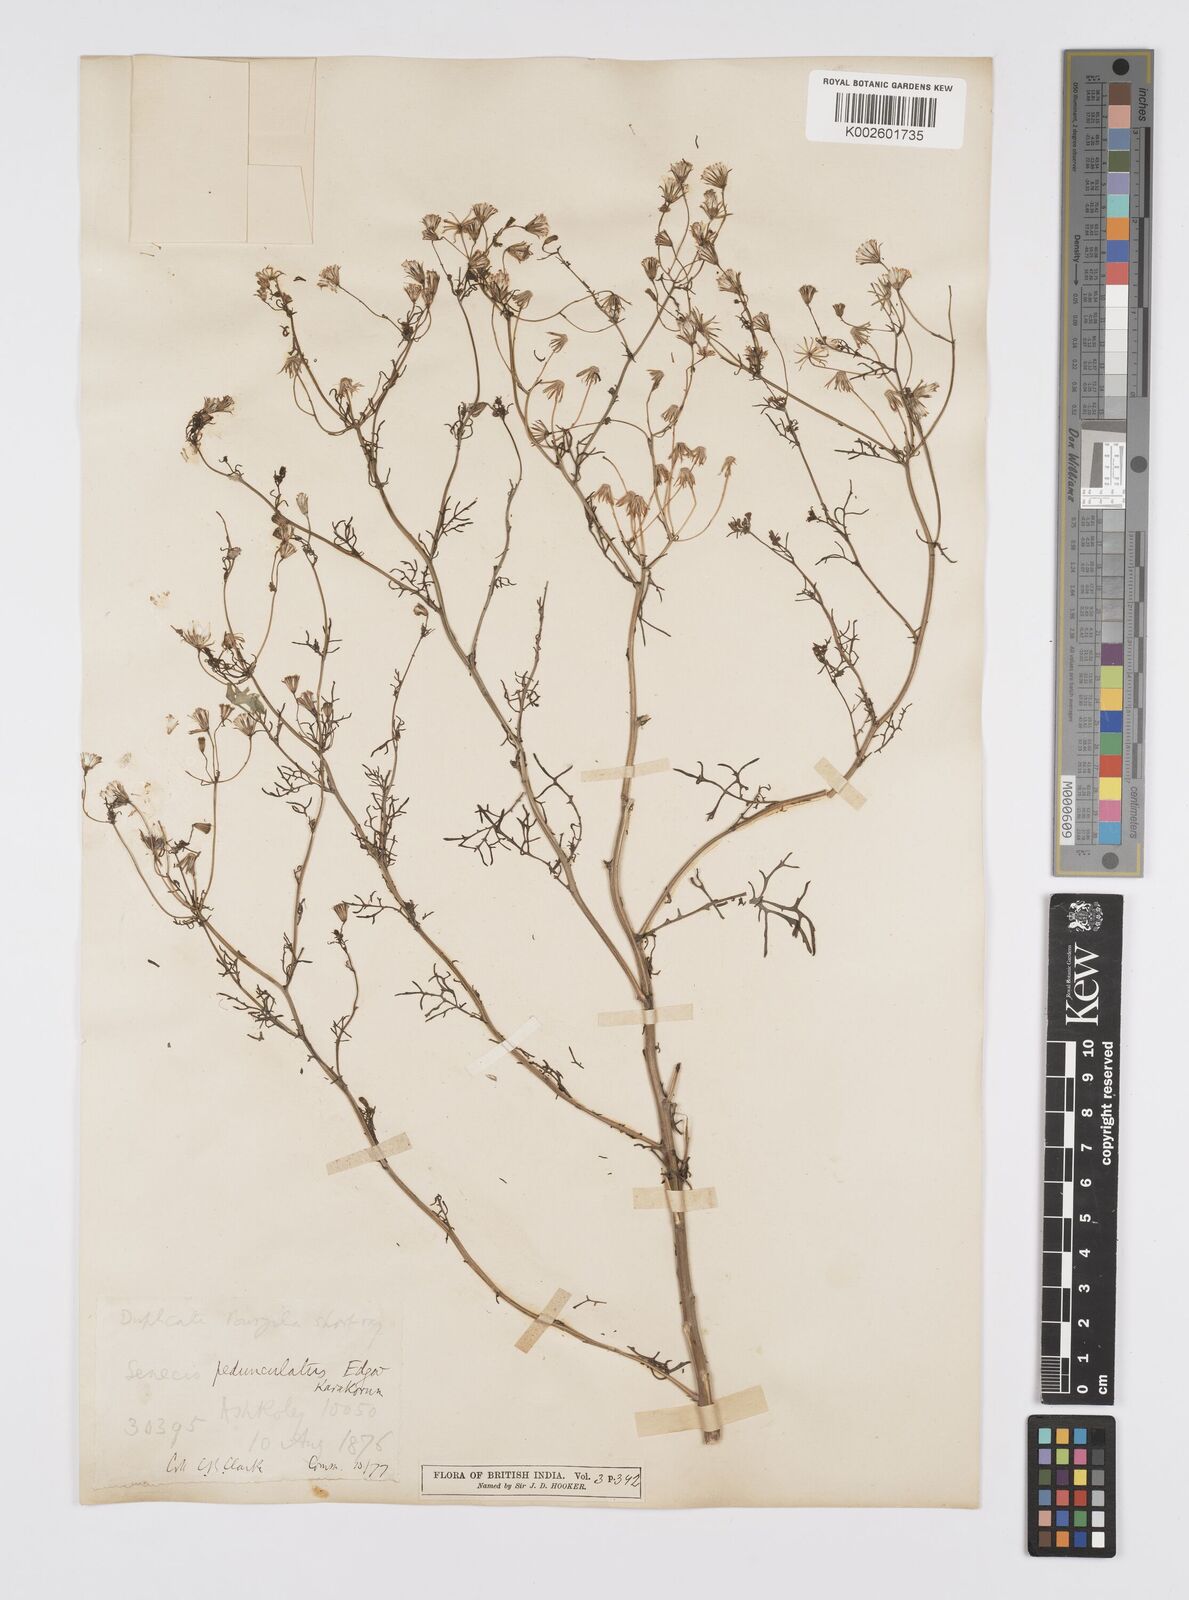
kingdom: Plantae
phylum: Tracheophyta
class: Magnoliopsida
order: Asterales
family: Asteraceae
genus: Senecio
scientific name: Senecio krascheninnikovii
